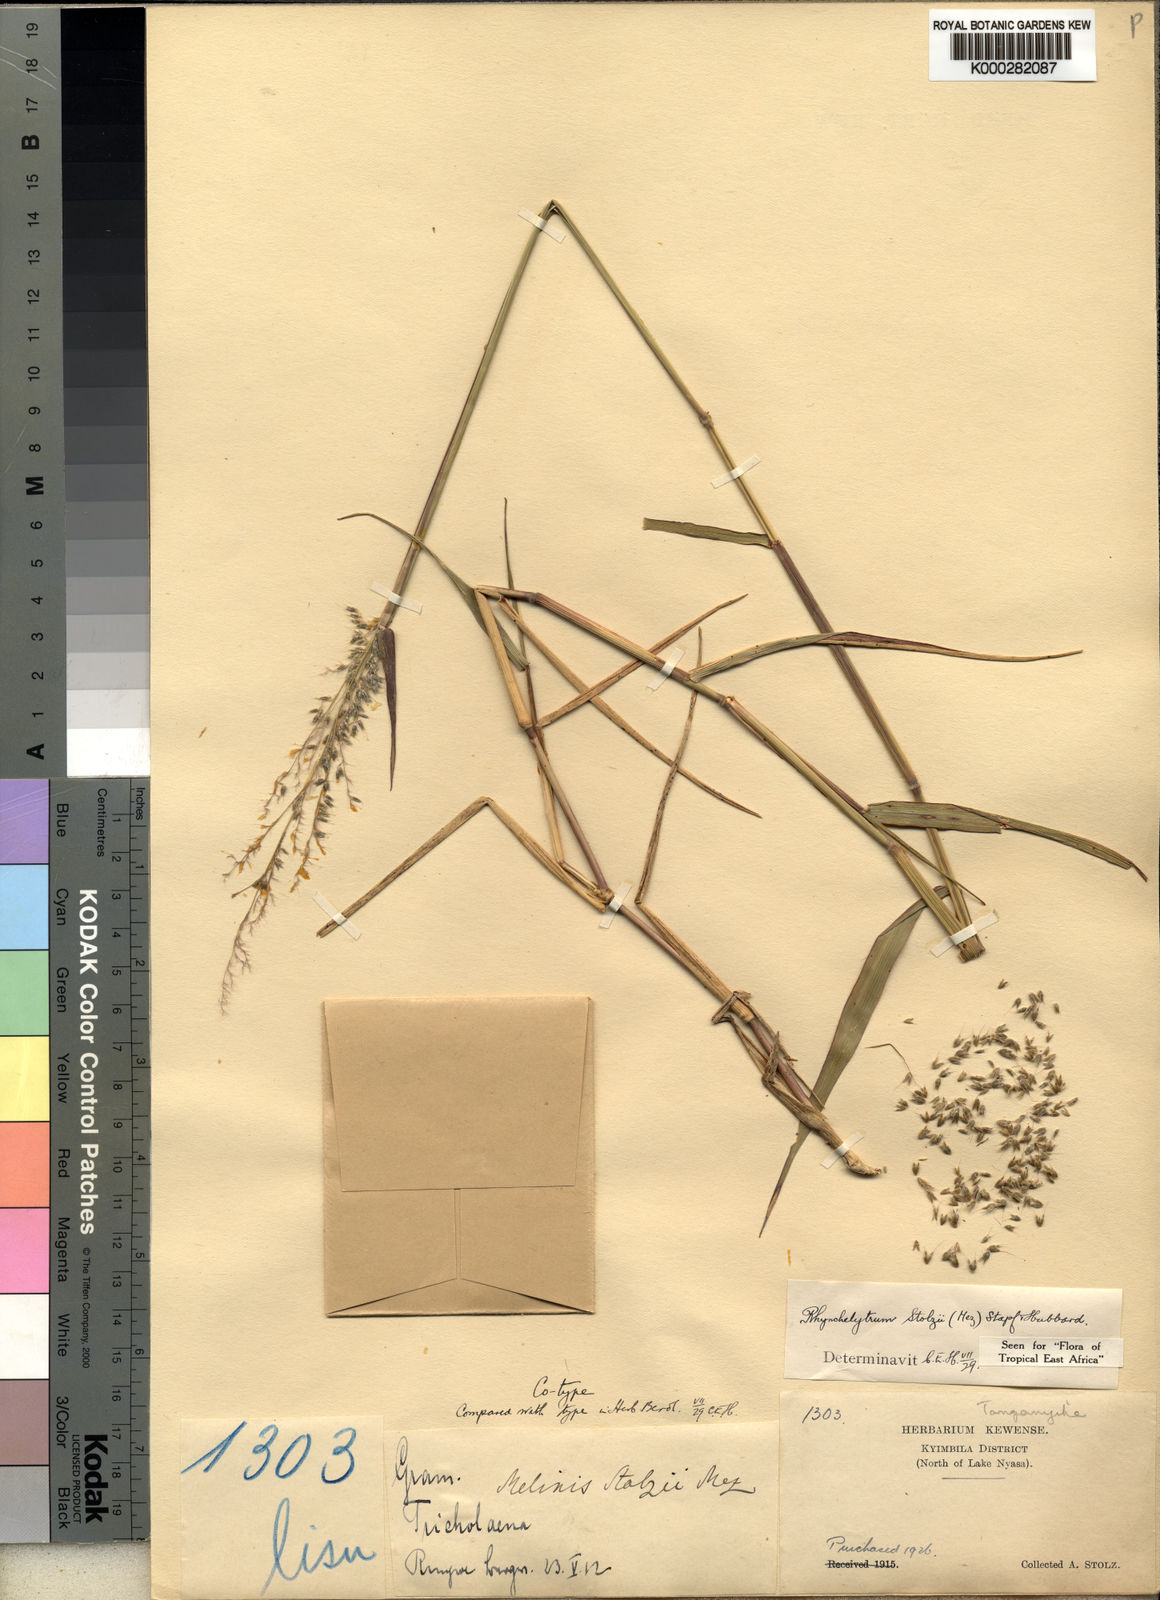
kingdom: Plantae
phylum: Tracheophyta
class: Liliopsida
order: Poales
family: Poaceae
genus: Melinis
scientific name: Melinis repens
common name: Rose natal grass
